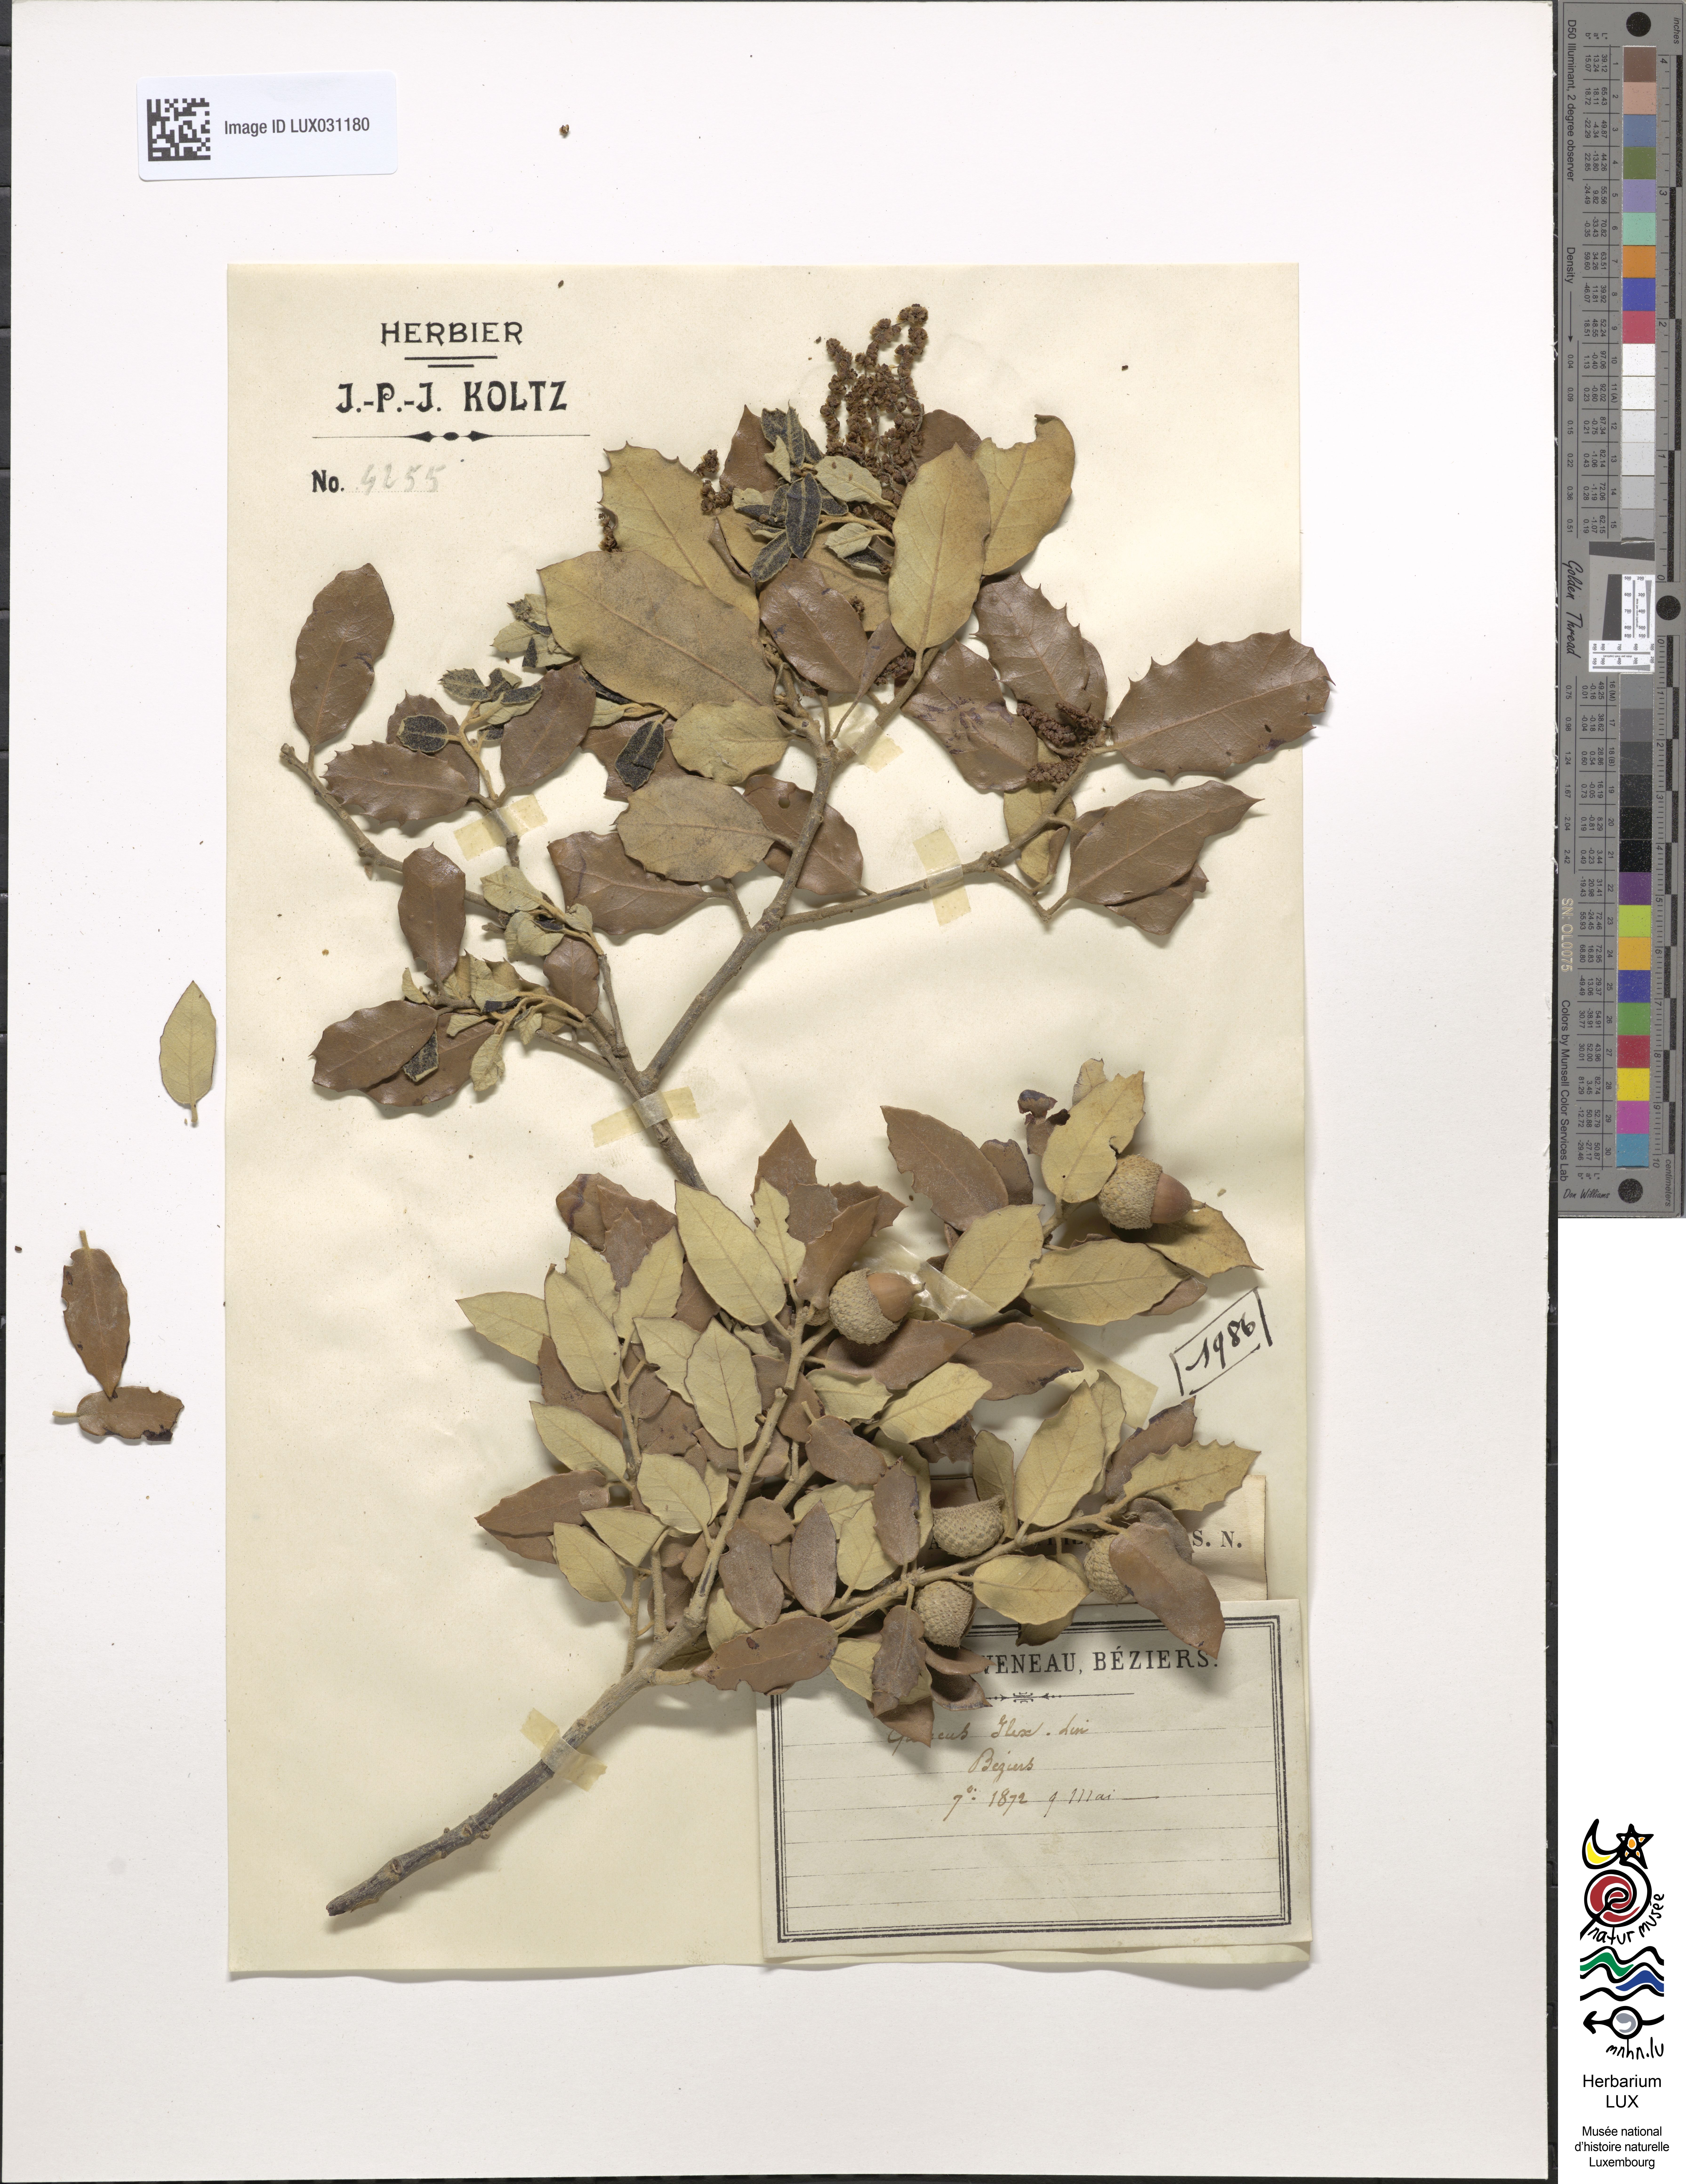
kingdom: Plantae
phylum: Tracheophyta
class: Magnoliopsida
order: Fagales
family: Fagaceae
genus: Quercus
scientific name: Quercus ilex
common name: Evergreen oak
